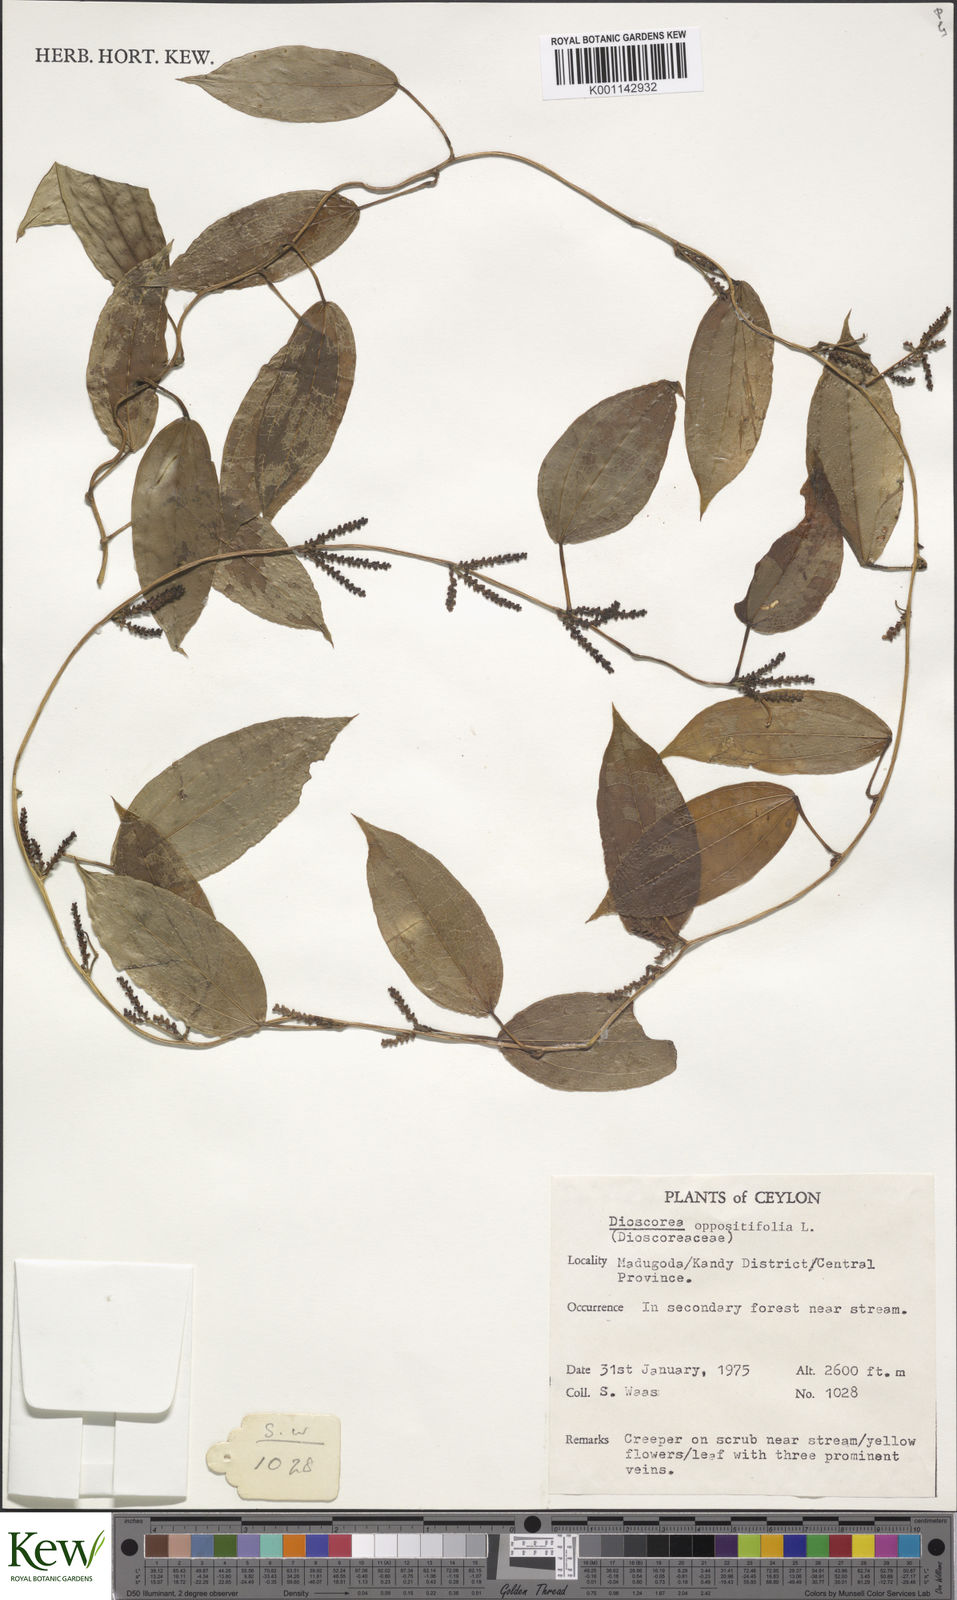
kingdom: Plantae
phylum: Tracheophyta
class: Liliopsida
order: Dioscoreales
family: Dioscoreaceae
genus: Dioscorea
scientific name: Dioscorea oppositifolia
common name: Chinese yam
